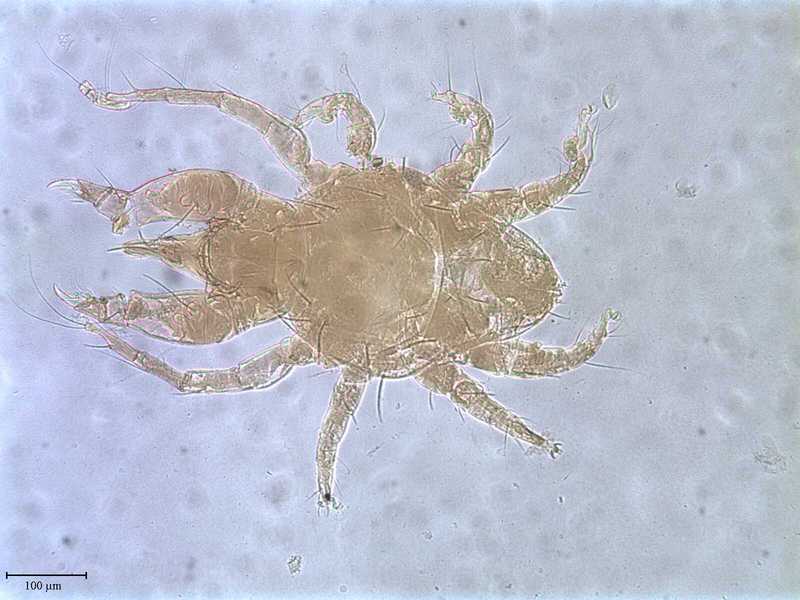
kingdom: Animalia
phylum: Arthropoda
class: Arachnida
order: Trombidiformes
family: Cheyletidae
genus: Cheyletus
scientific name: Cheyletus venator
